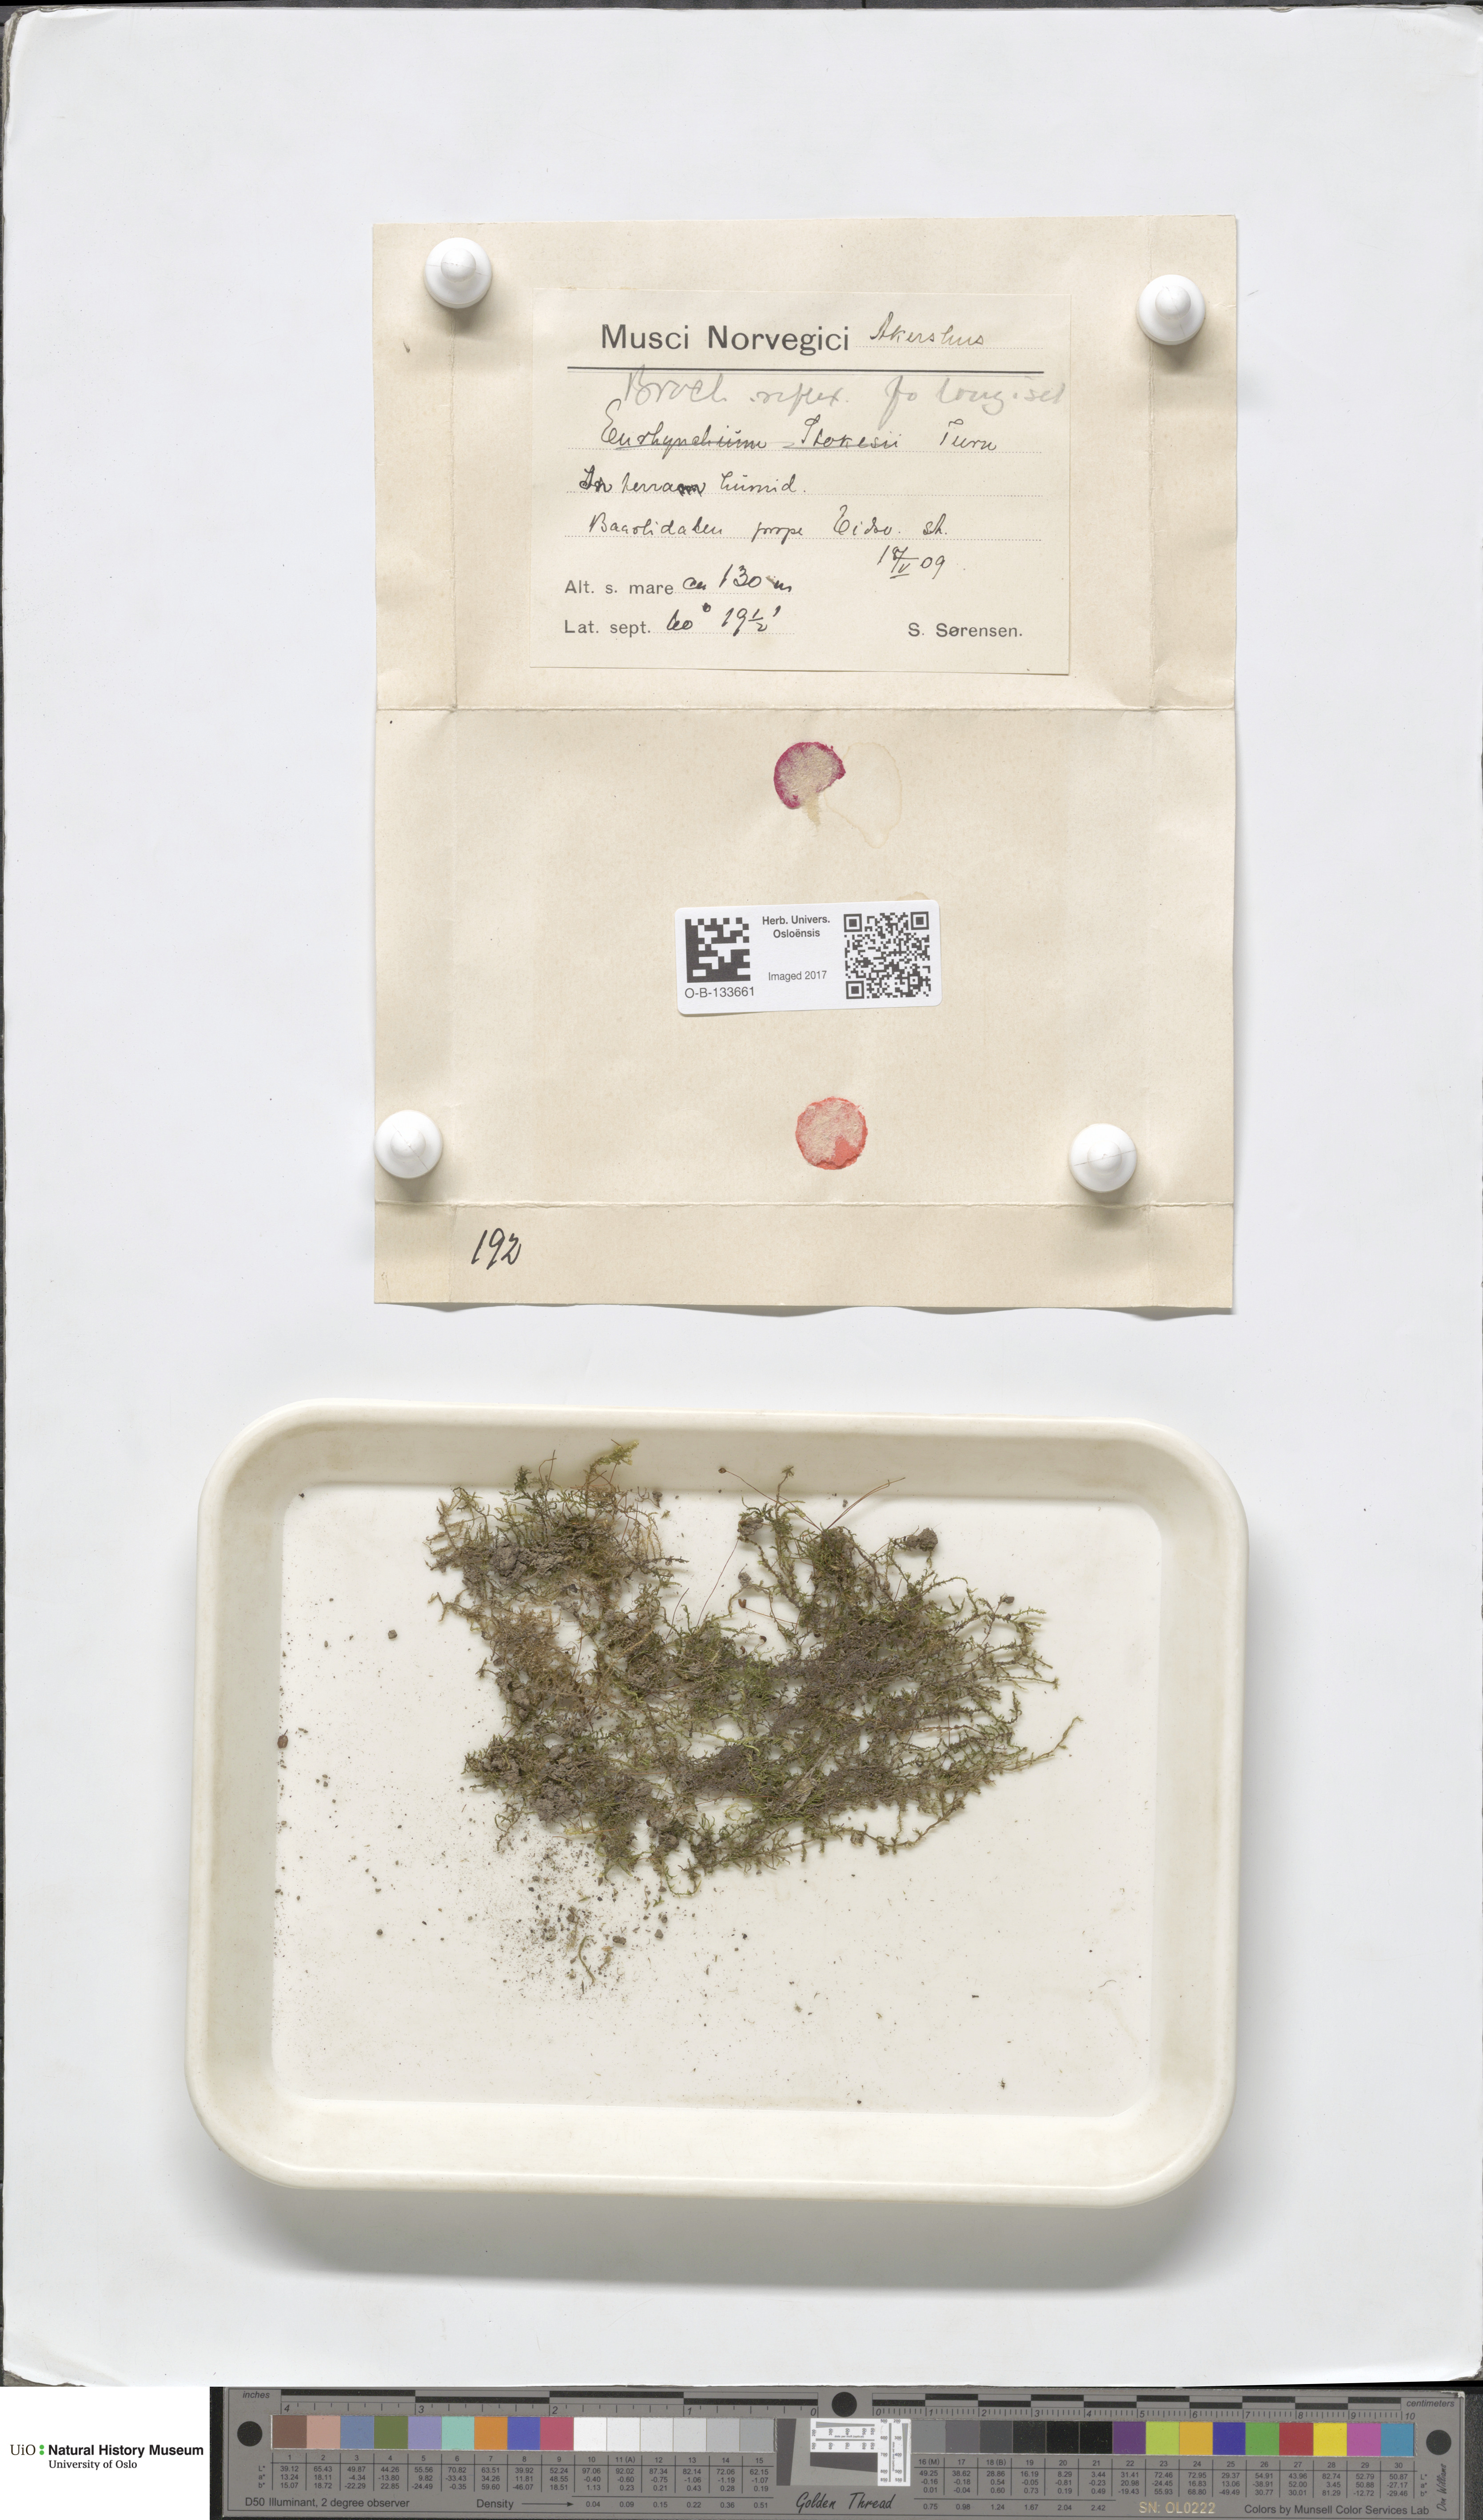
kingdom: Plantae
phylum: Bryophyta
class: Bryopsida
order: Hypnales
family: Brachytheciaceae
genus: Sciuro-hypnum
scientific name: Sciuro-hypnum reflexum
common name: Reflexed feather-moss
